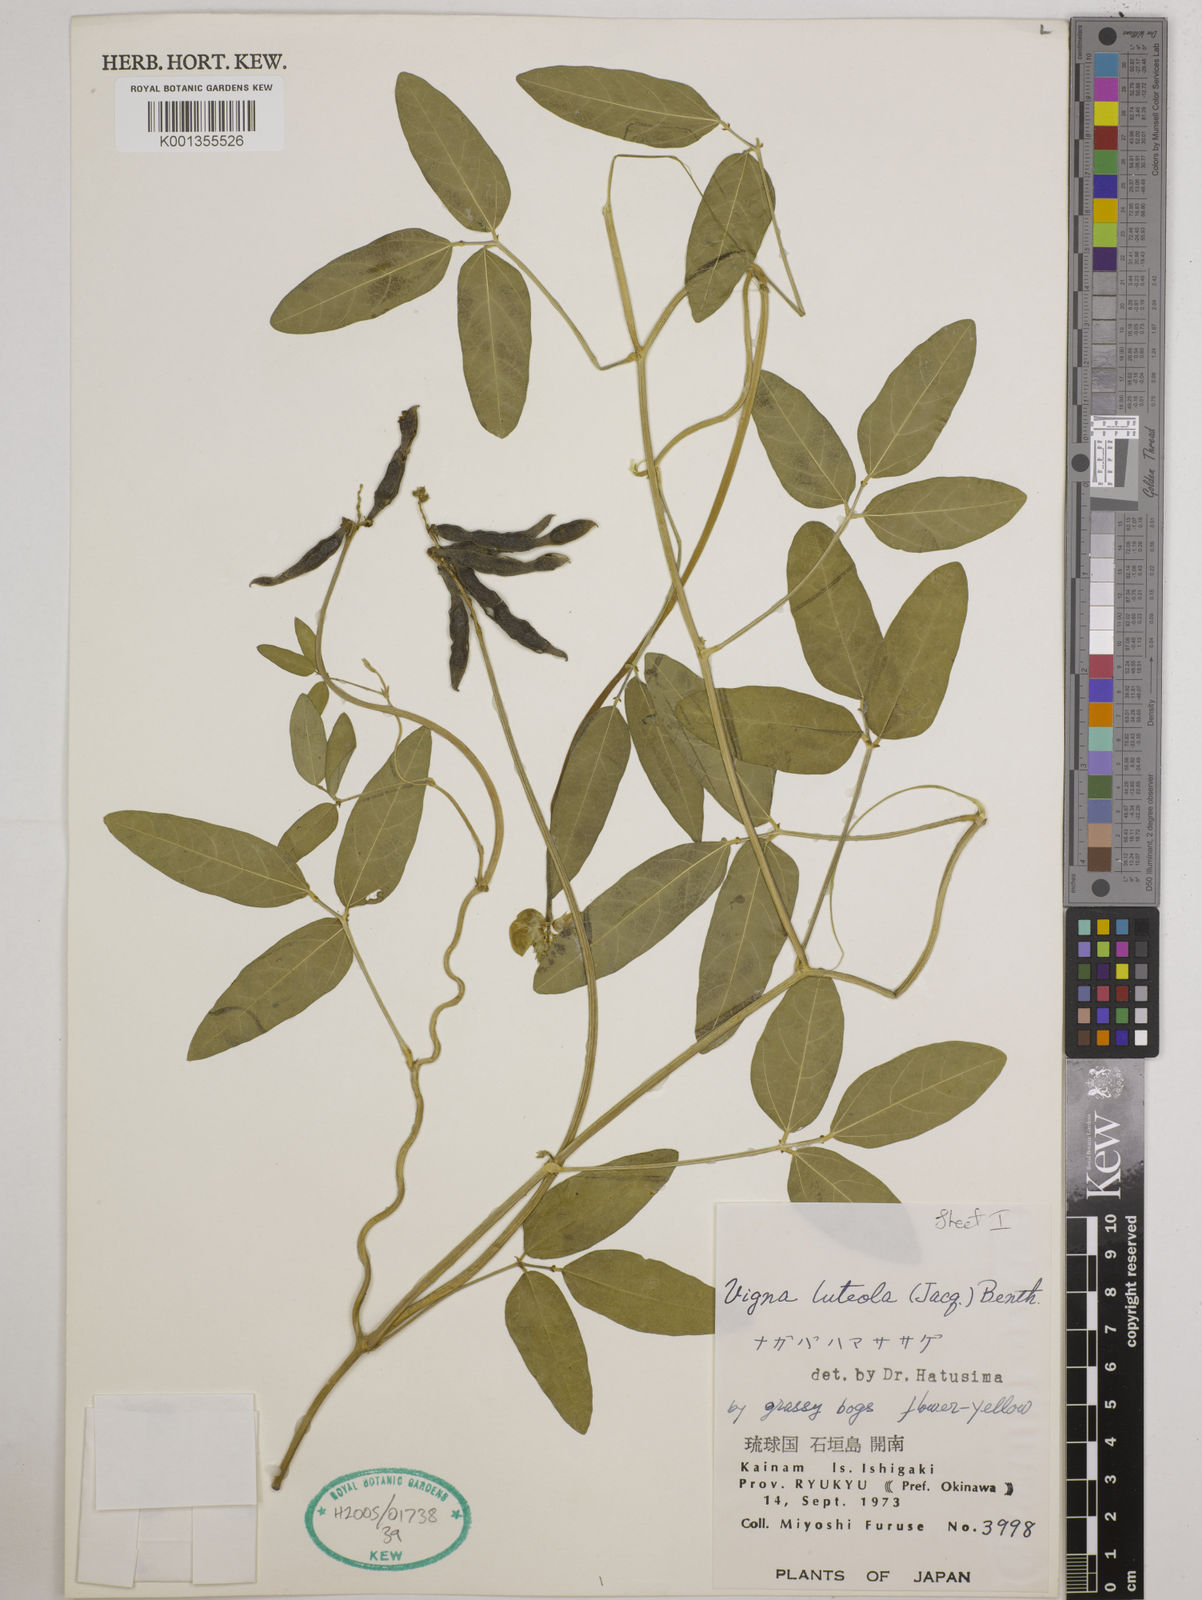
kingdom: Plantae
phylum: Tracheophyta
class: Magnoliopsida
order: Fabales
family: Fabaceae
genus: Vigna
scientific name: Vigna luteola
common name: Hairypod cowpea
